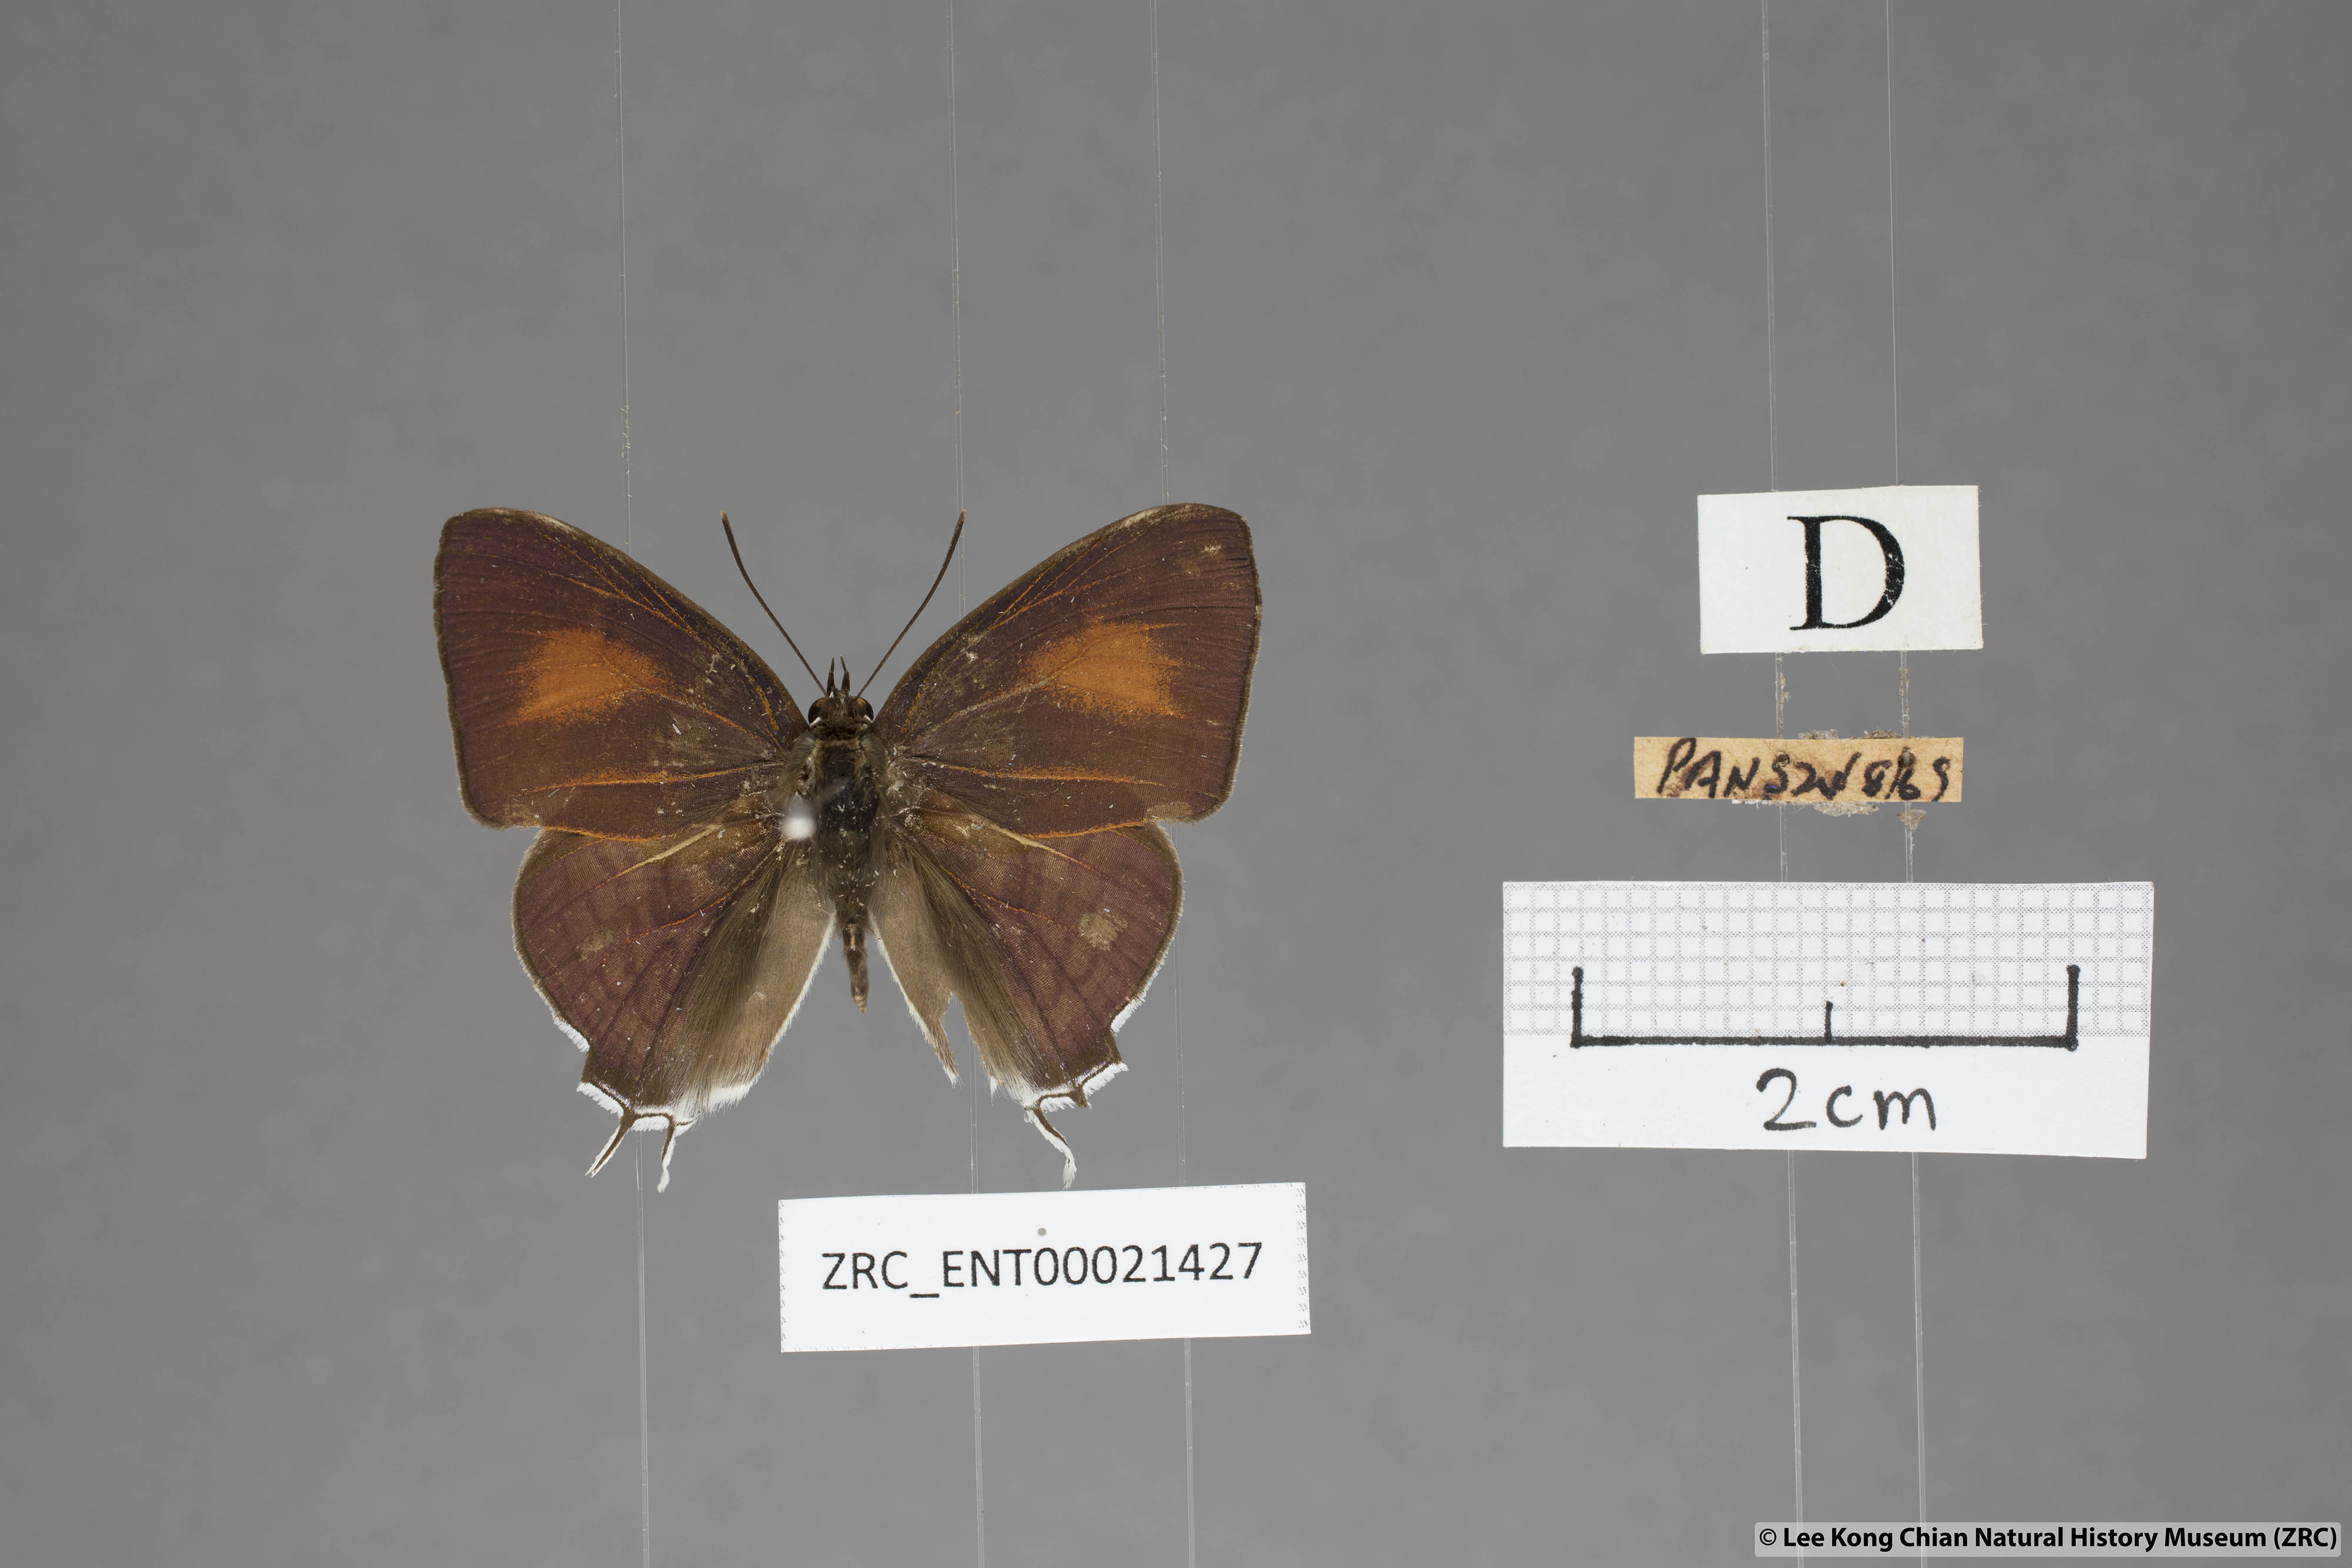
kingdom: Animalia
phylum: Arthropoda
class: Insecta
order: Lepidoptera
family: Lycaenidae
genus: Drupadia
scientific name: Drupadia theda
